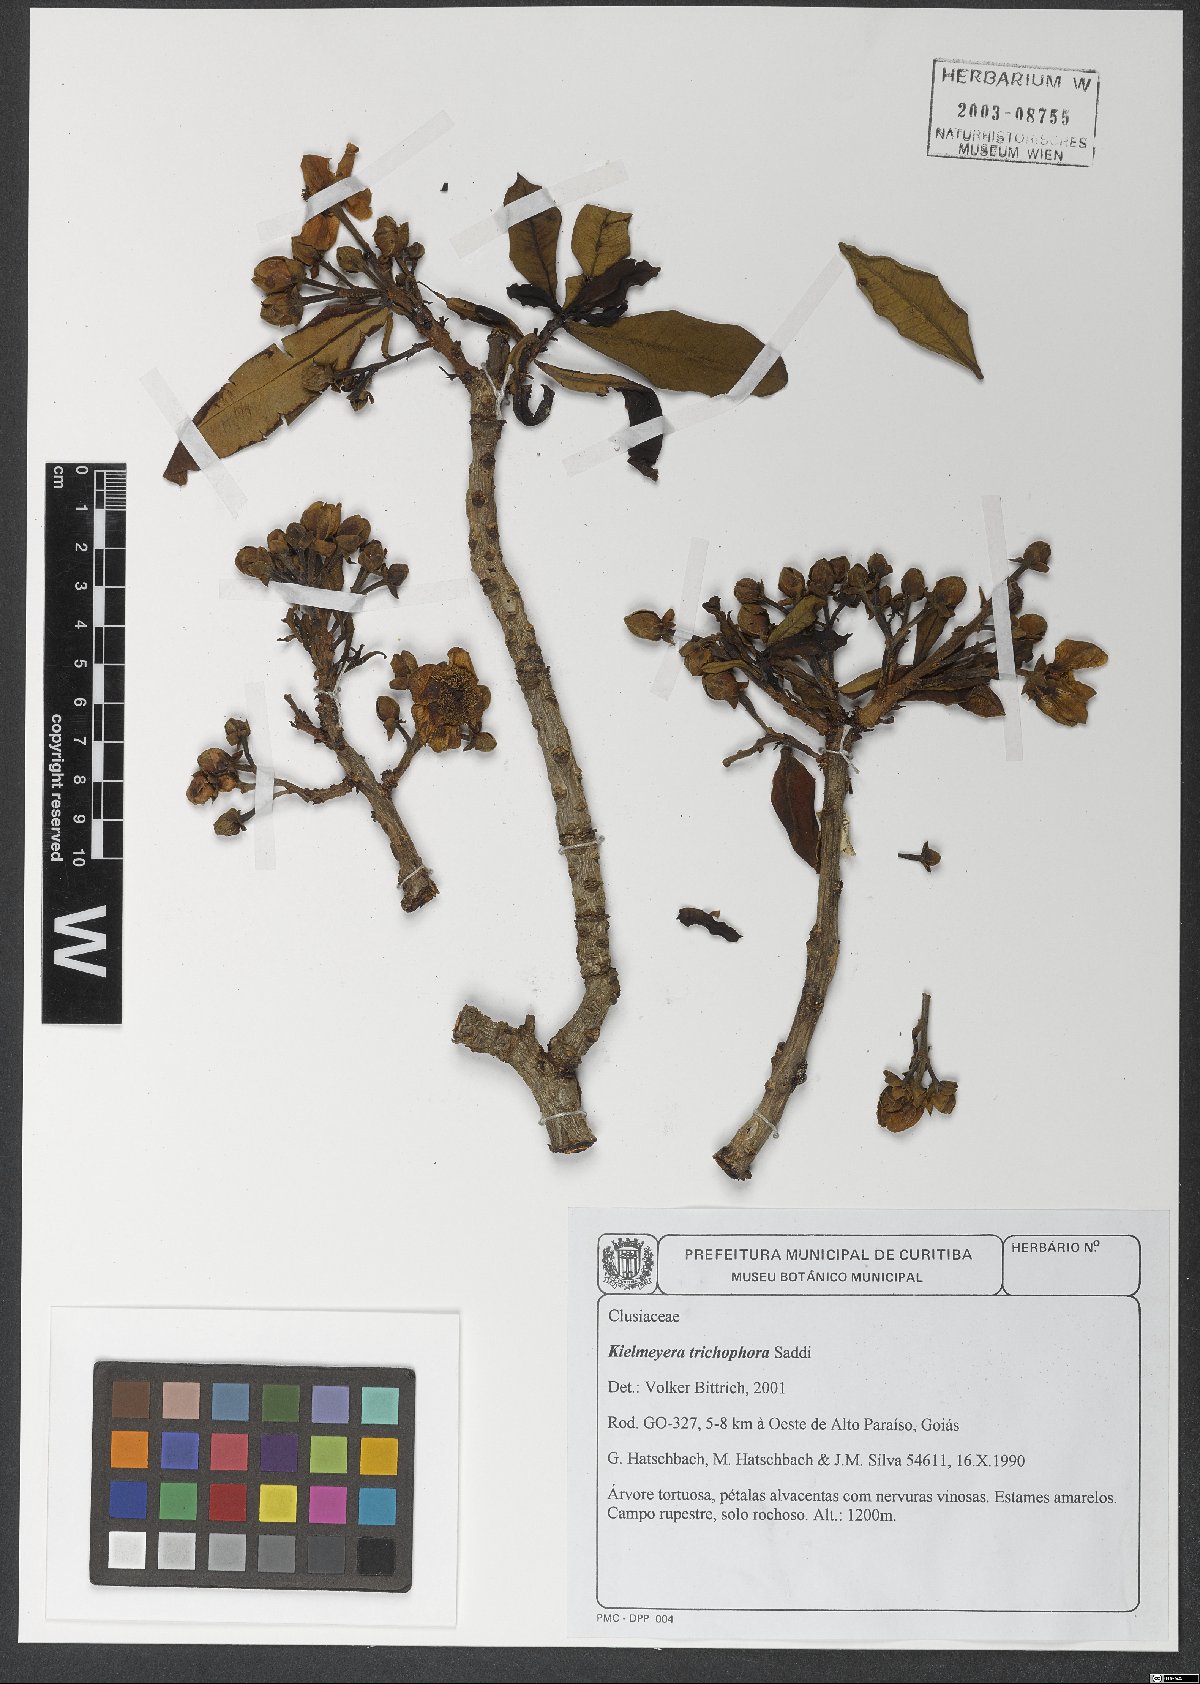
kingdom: Plantae
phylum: Tracheophyta
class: Magnoliopsida
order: Malpighiales
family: Calophyllaceae
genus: Kielmeyera
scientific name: Kielmeyera trichophora
